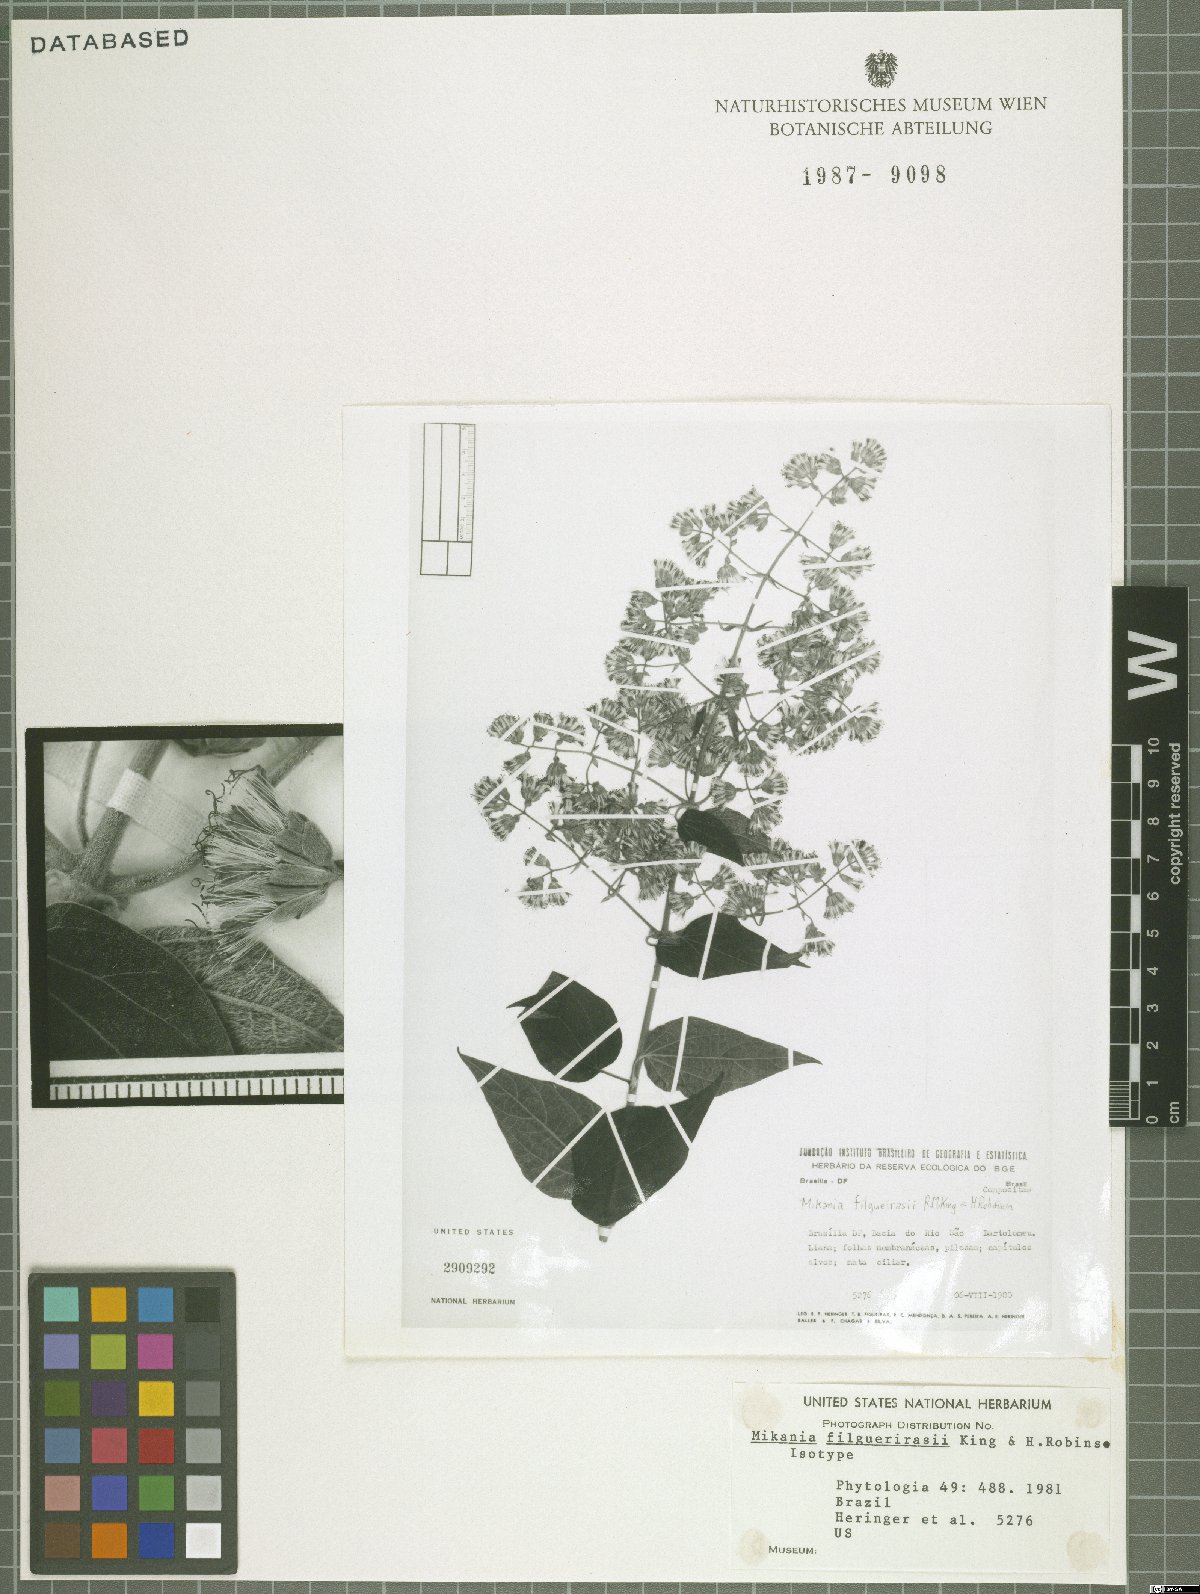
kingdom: Plantae
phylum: Tracheophyta
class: Magnoliopsida
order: Asterales
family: Asteraceae
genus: Mikania
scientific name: Mikania filgueirasii
